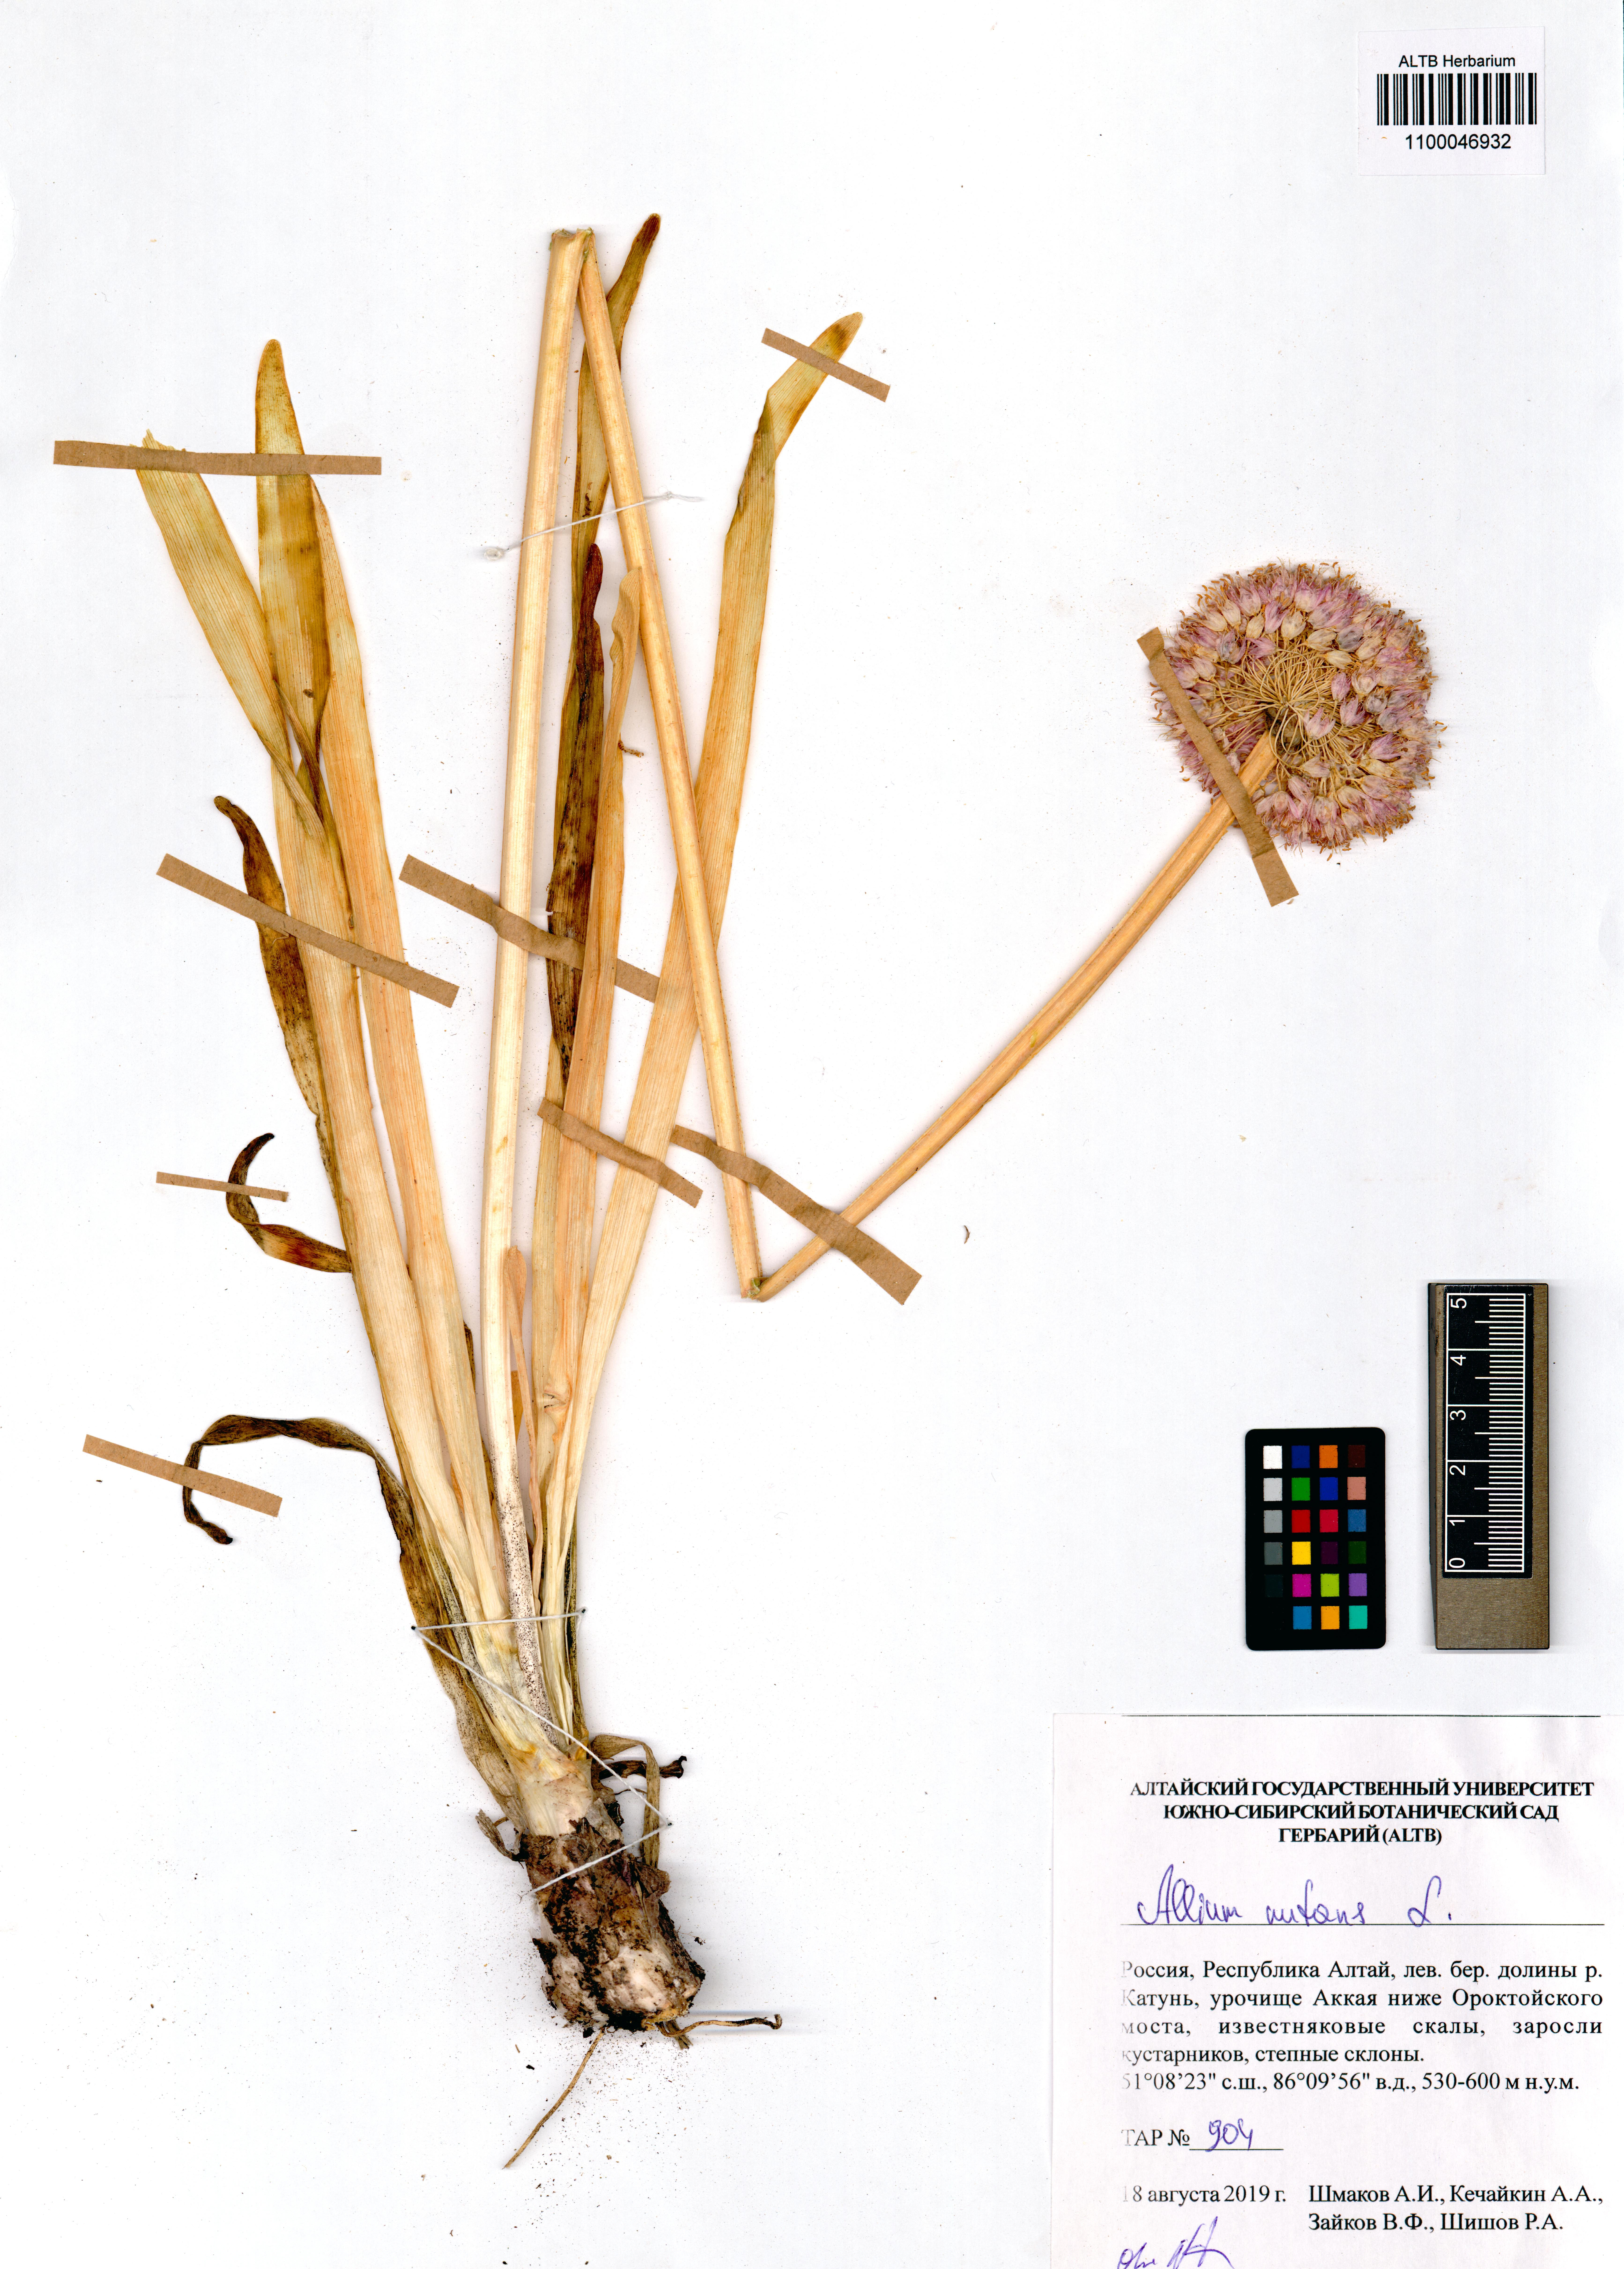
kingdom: Plantae
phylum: Tracheophyta
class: Liliopsida
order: Asparagales
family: Amaryllidaceae
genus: Allium
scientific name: Allium nutans
